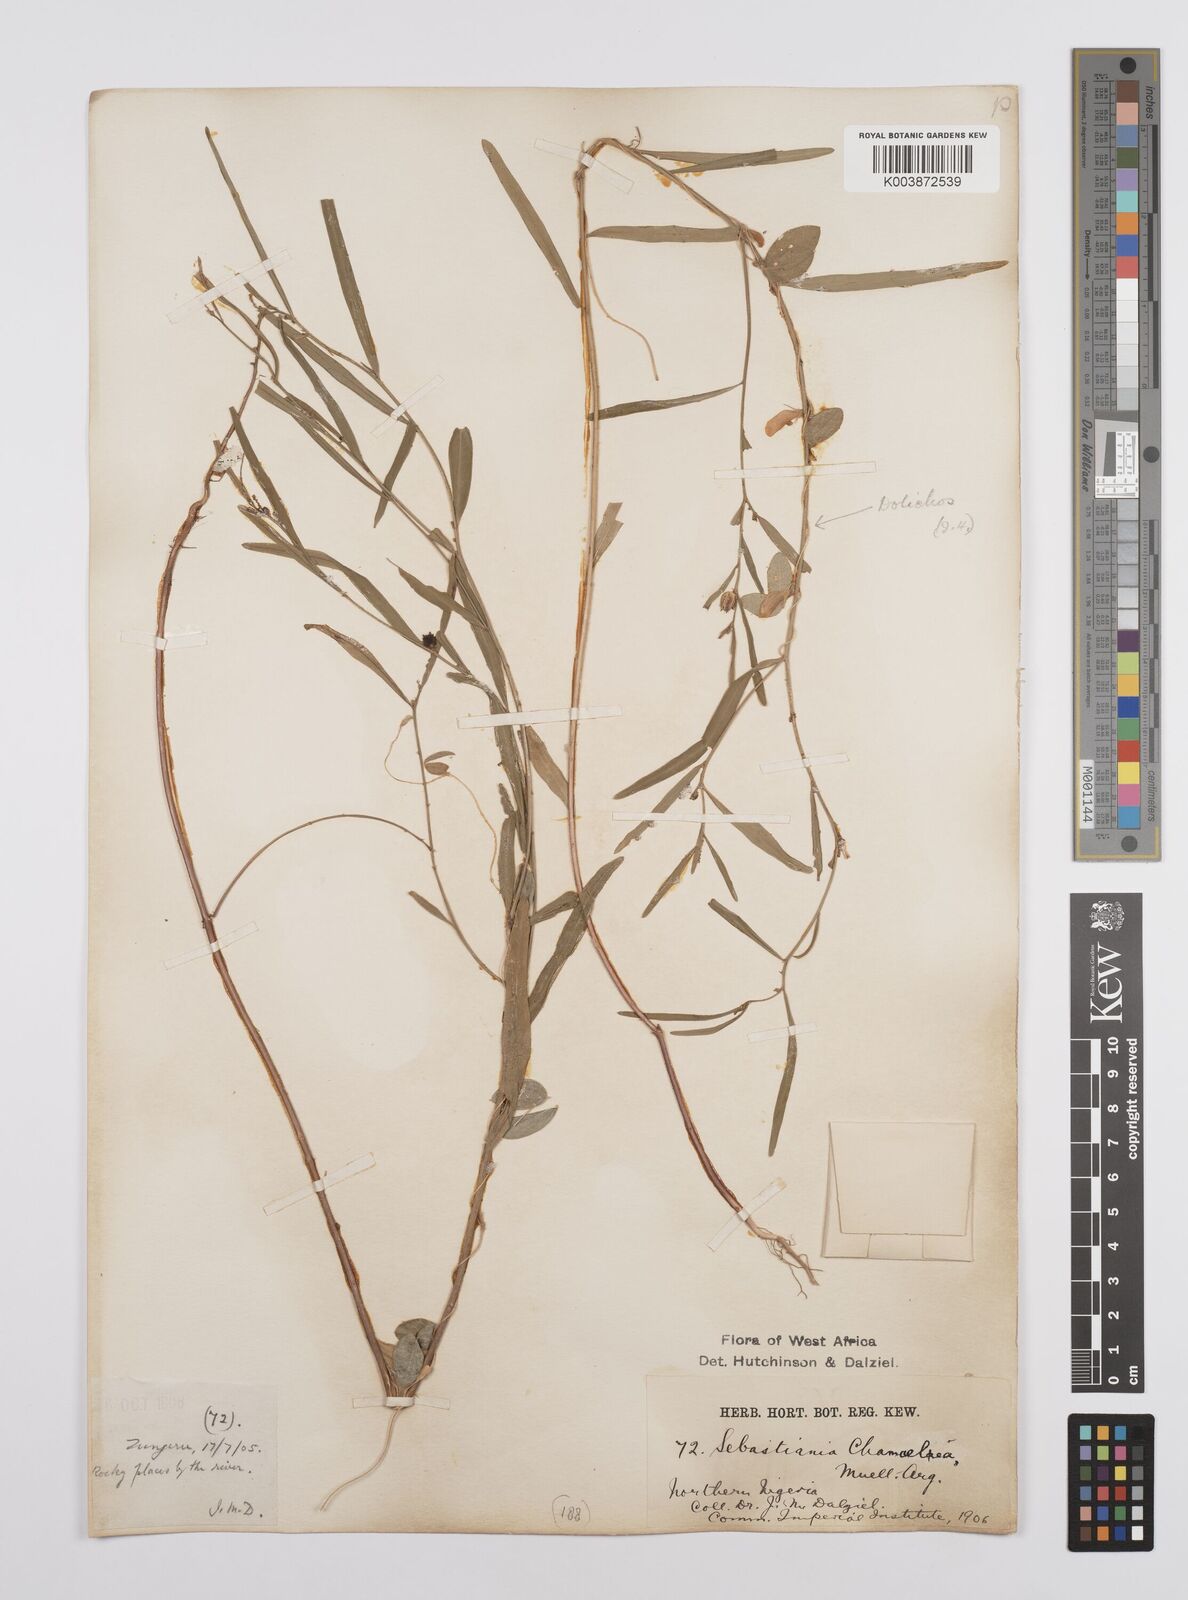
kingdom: Plantae
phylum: Tracheophyta
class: Magnoliopsida
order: Malpighiales
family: Euphorbiaceae
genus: Microstachys
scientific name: Microstachys chamaelea
